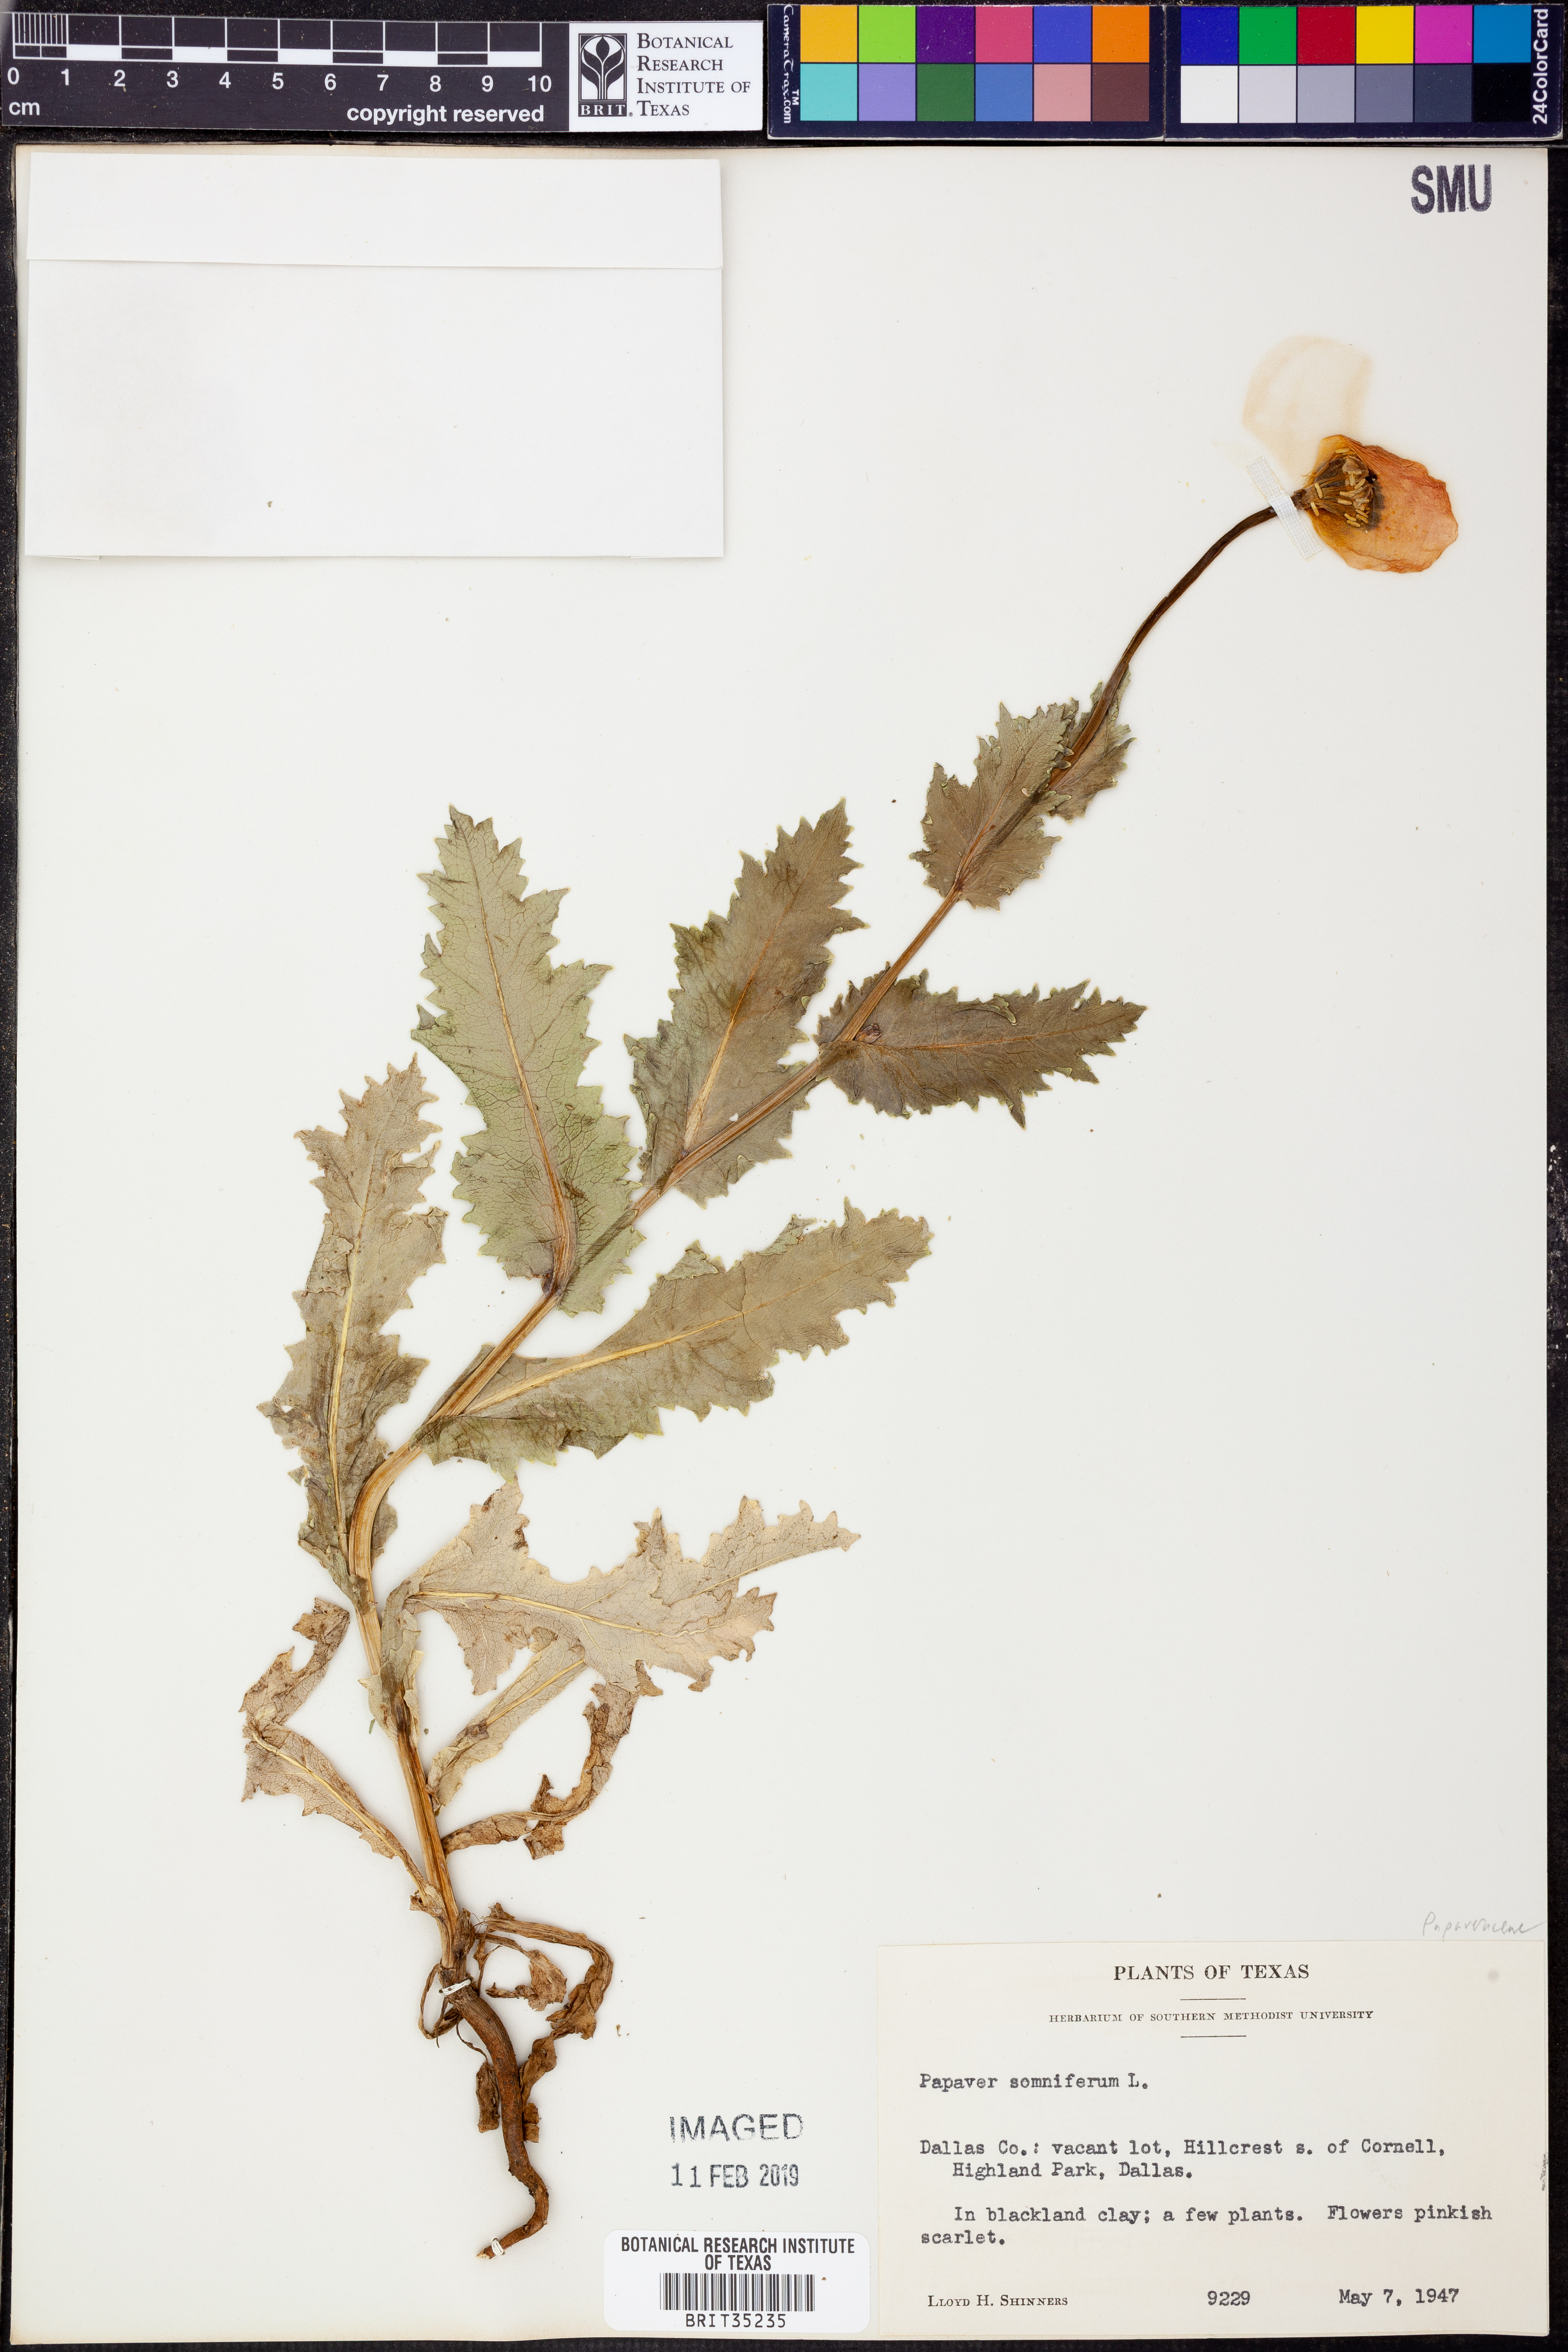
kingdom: Plantae
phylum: Tracheophyta
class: Magnoliopsida
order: Ranunculales
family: Papaveraceae
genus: Papaver
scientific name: Papaver somniferum
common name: Opium poppy
